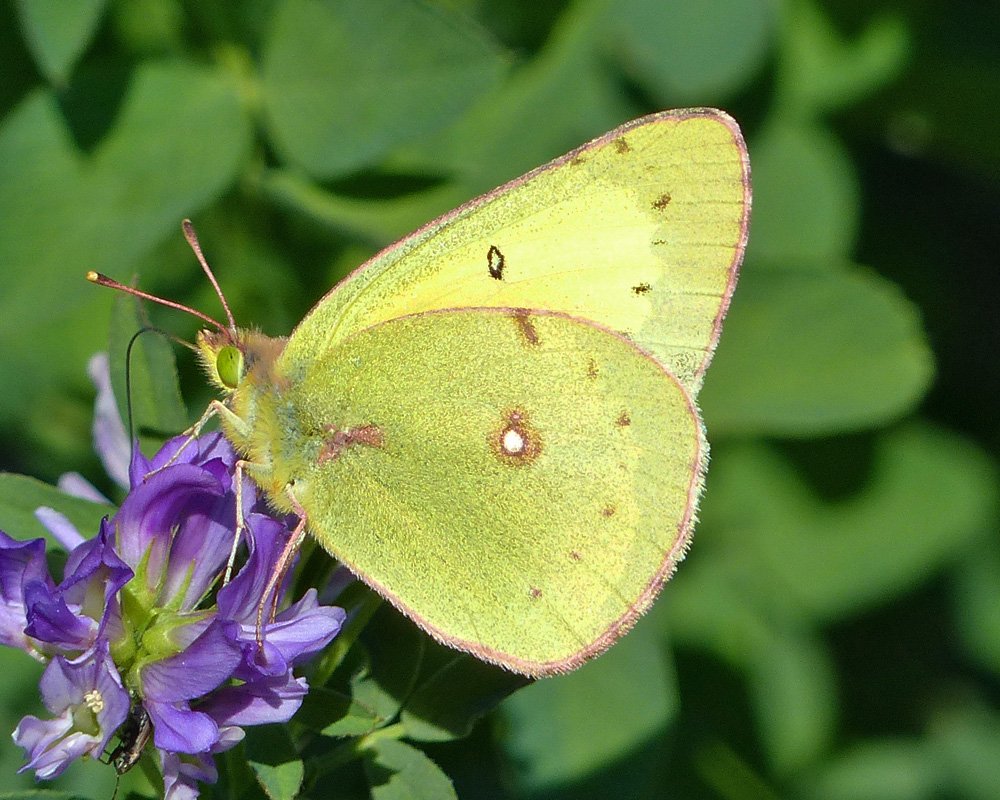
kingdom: Animalia
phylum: Arthropoda
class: Insecta
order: Lepidoptera
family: Pieridae
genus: Colias
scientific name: Colias eurytheme
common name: Orange Sulphur
